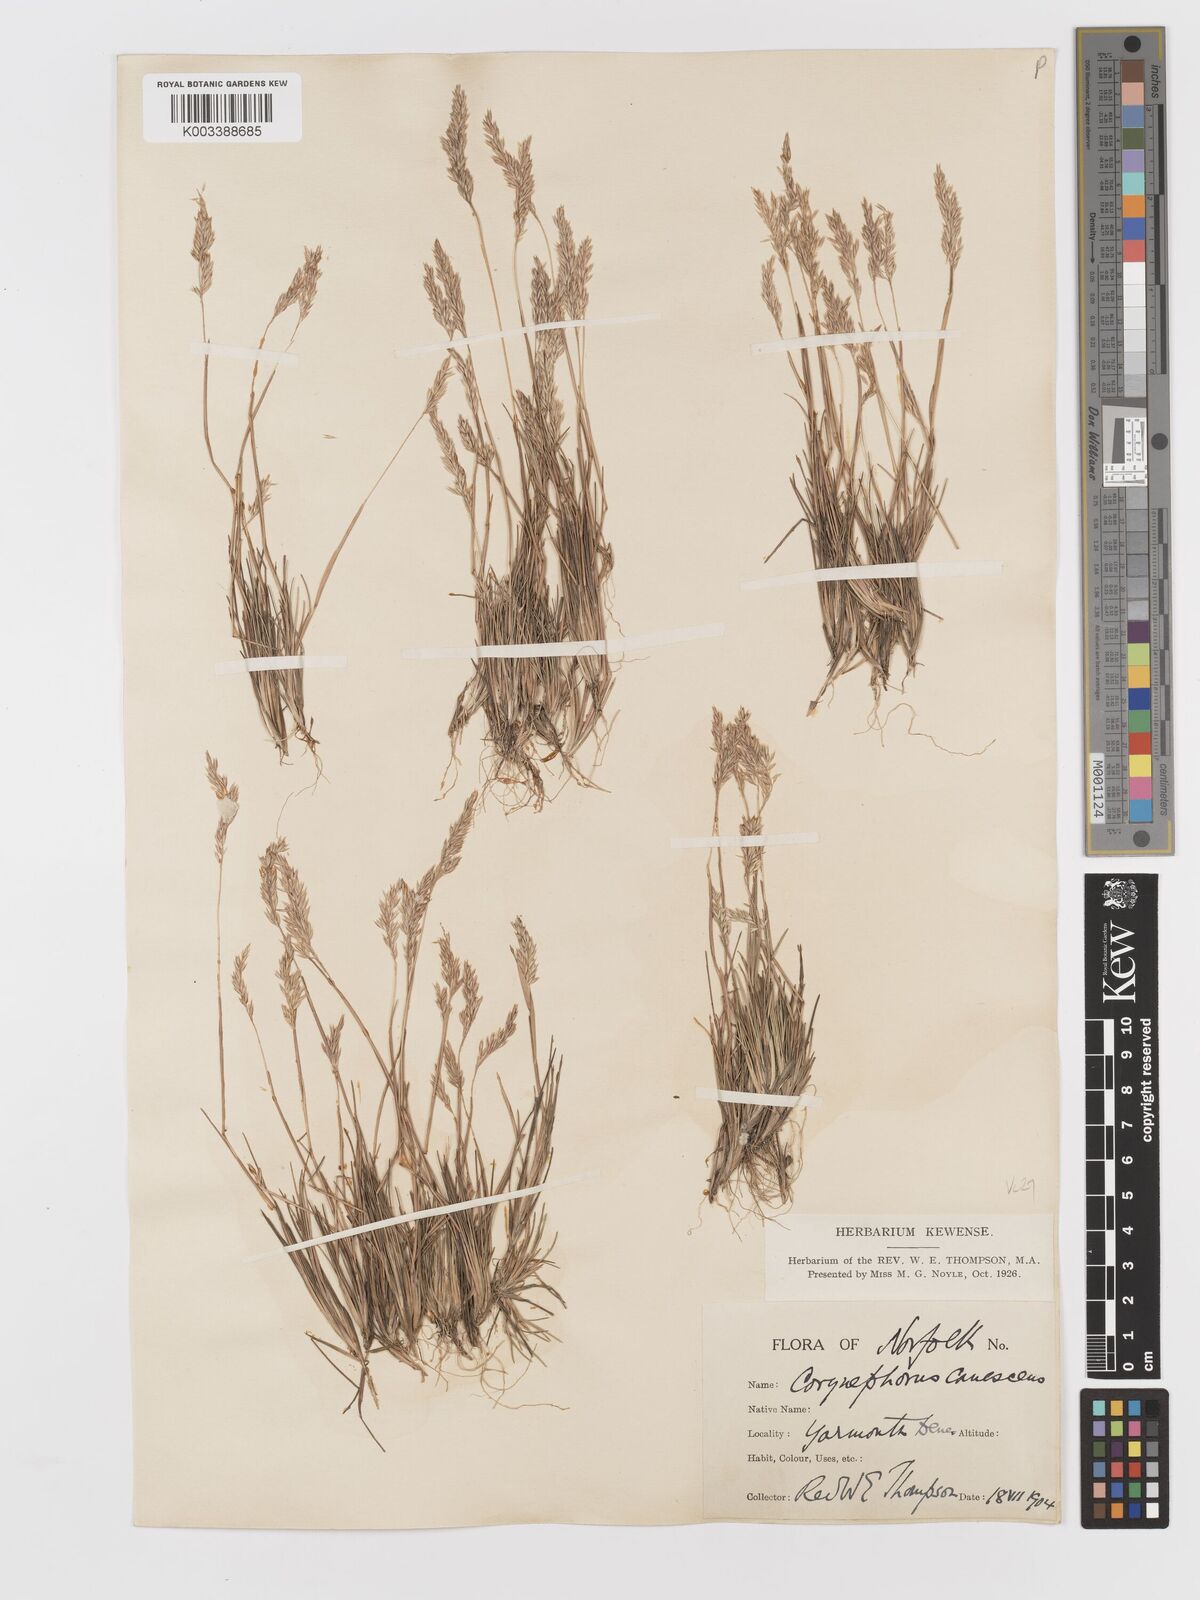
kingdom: Plantae
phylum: Tracheophyta
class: Liliopsida
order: Poales
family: Poaceae
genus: Corynephorus
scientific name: Corynephorus canescens
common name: Grey hair-grass
